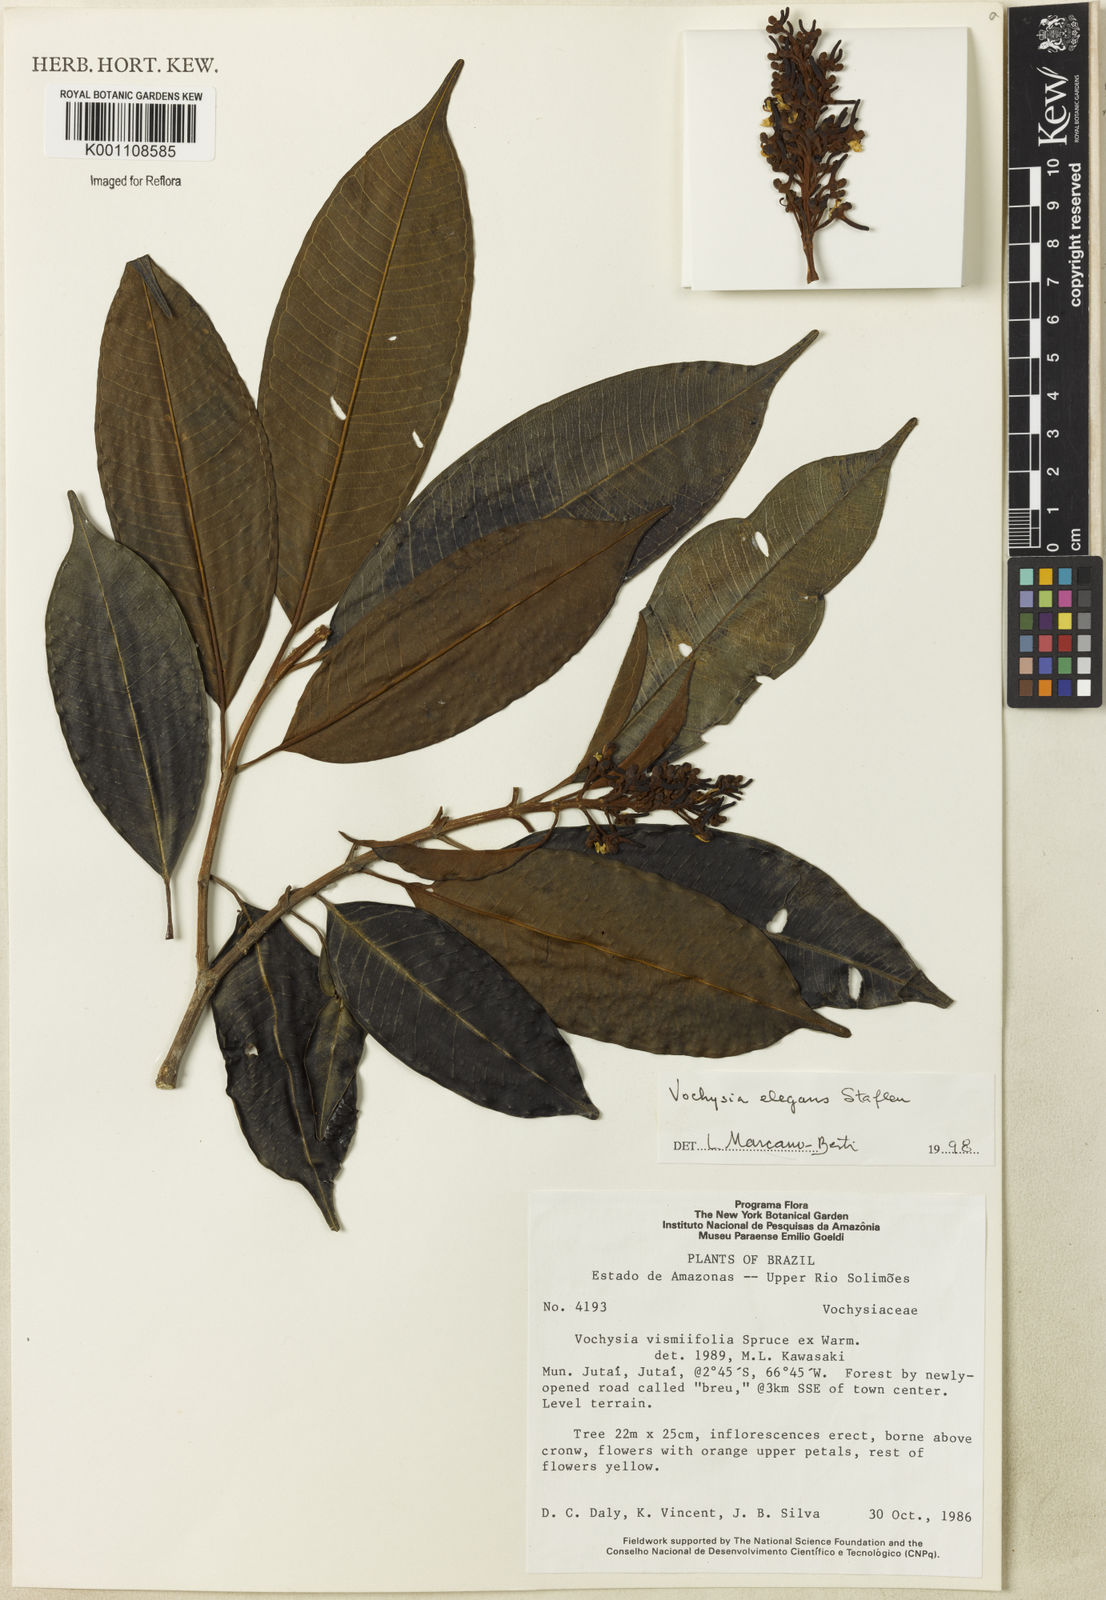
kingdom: Plantae
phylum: Tracheophyta
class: Magnoliopsida
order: Myrtales
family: Vochysiaceae
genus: Vochysia
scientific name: Vochysia elegans
